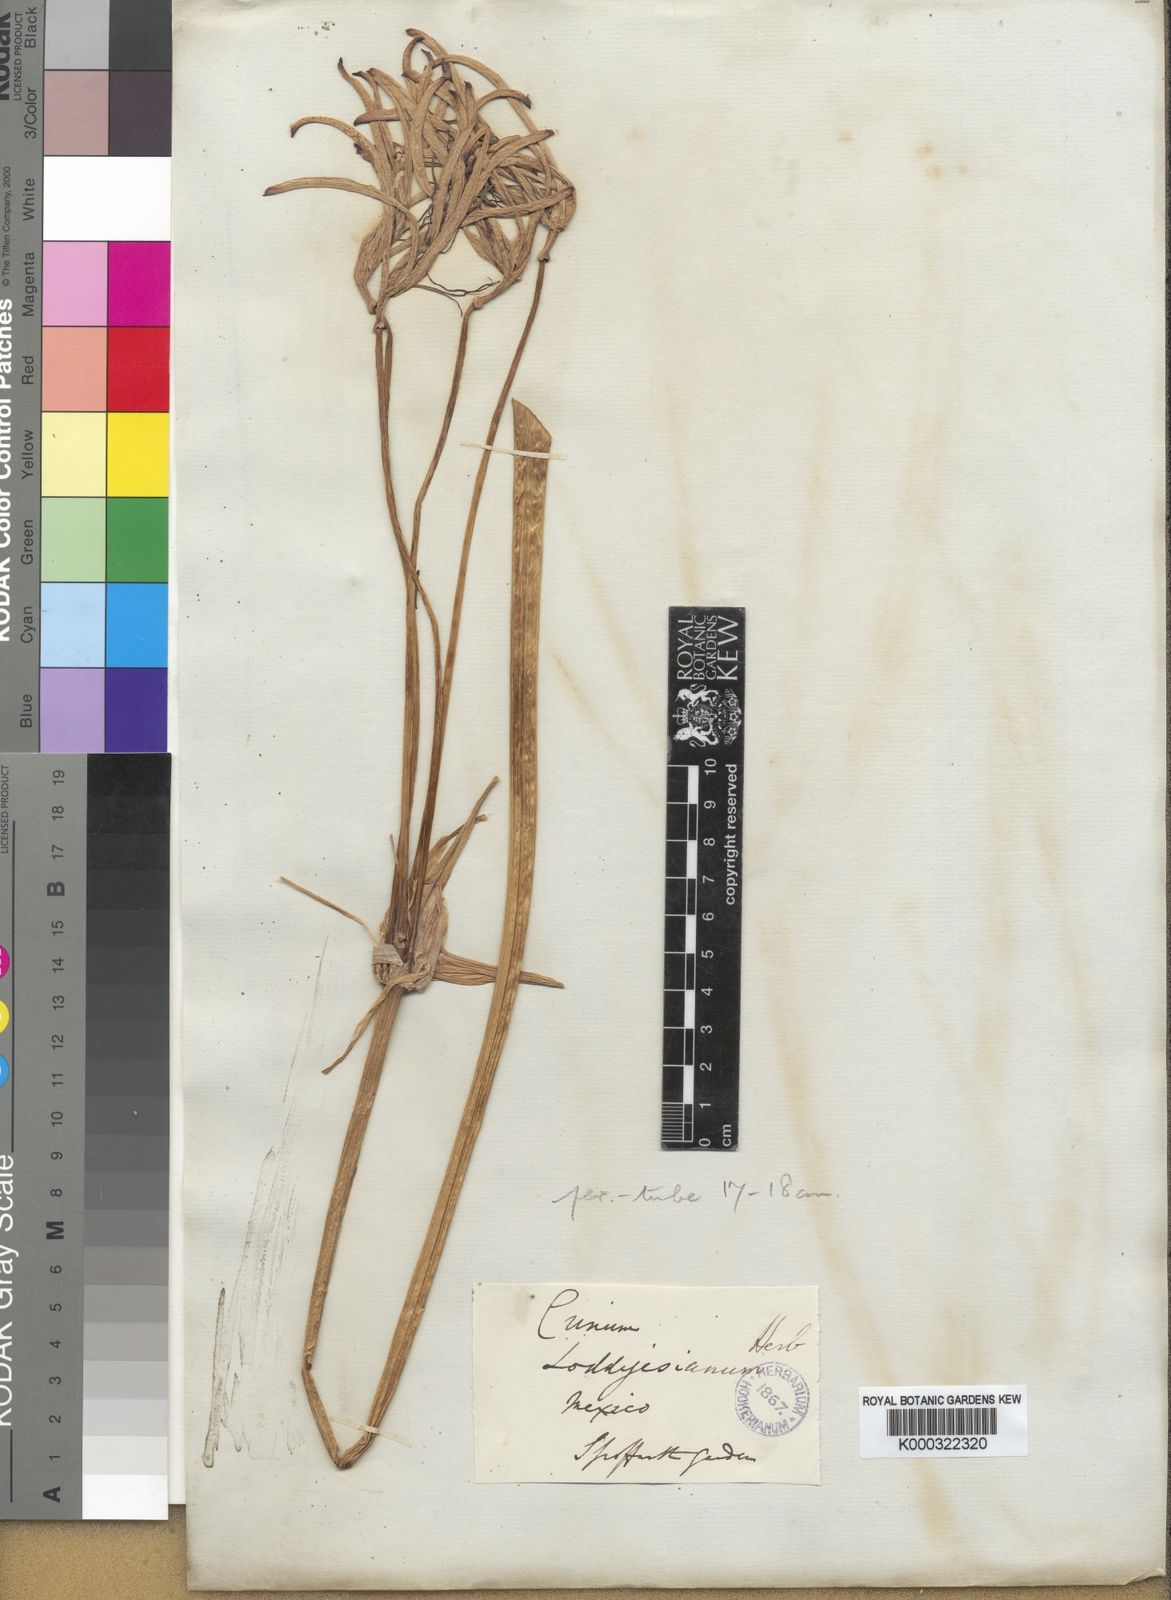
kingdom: Plantae
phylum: Tracheophyta
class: Liliopsida
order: Asparagales
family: Amaryllidaceae
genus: Crinum
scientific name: Crinum erubescens
